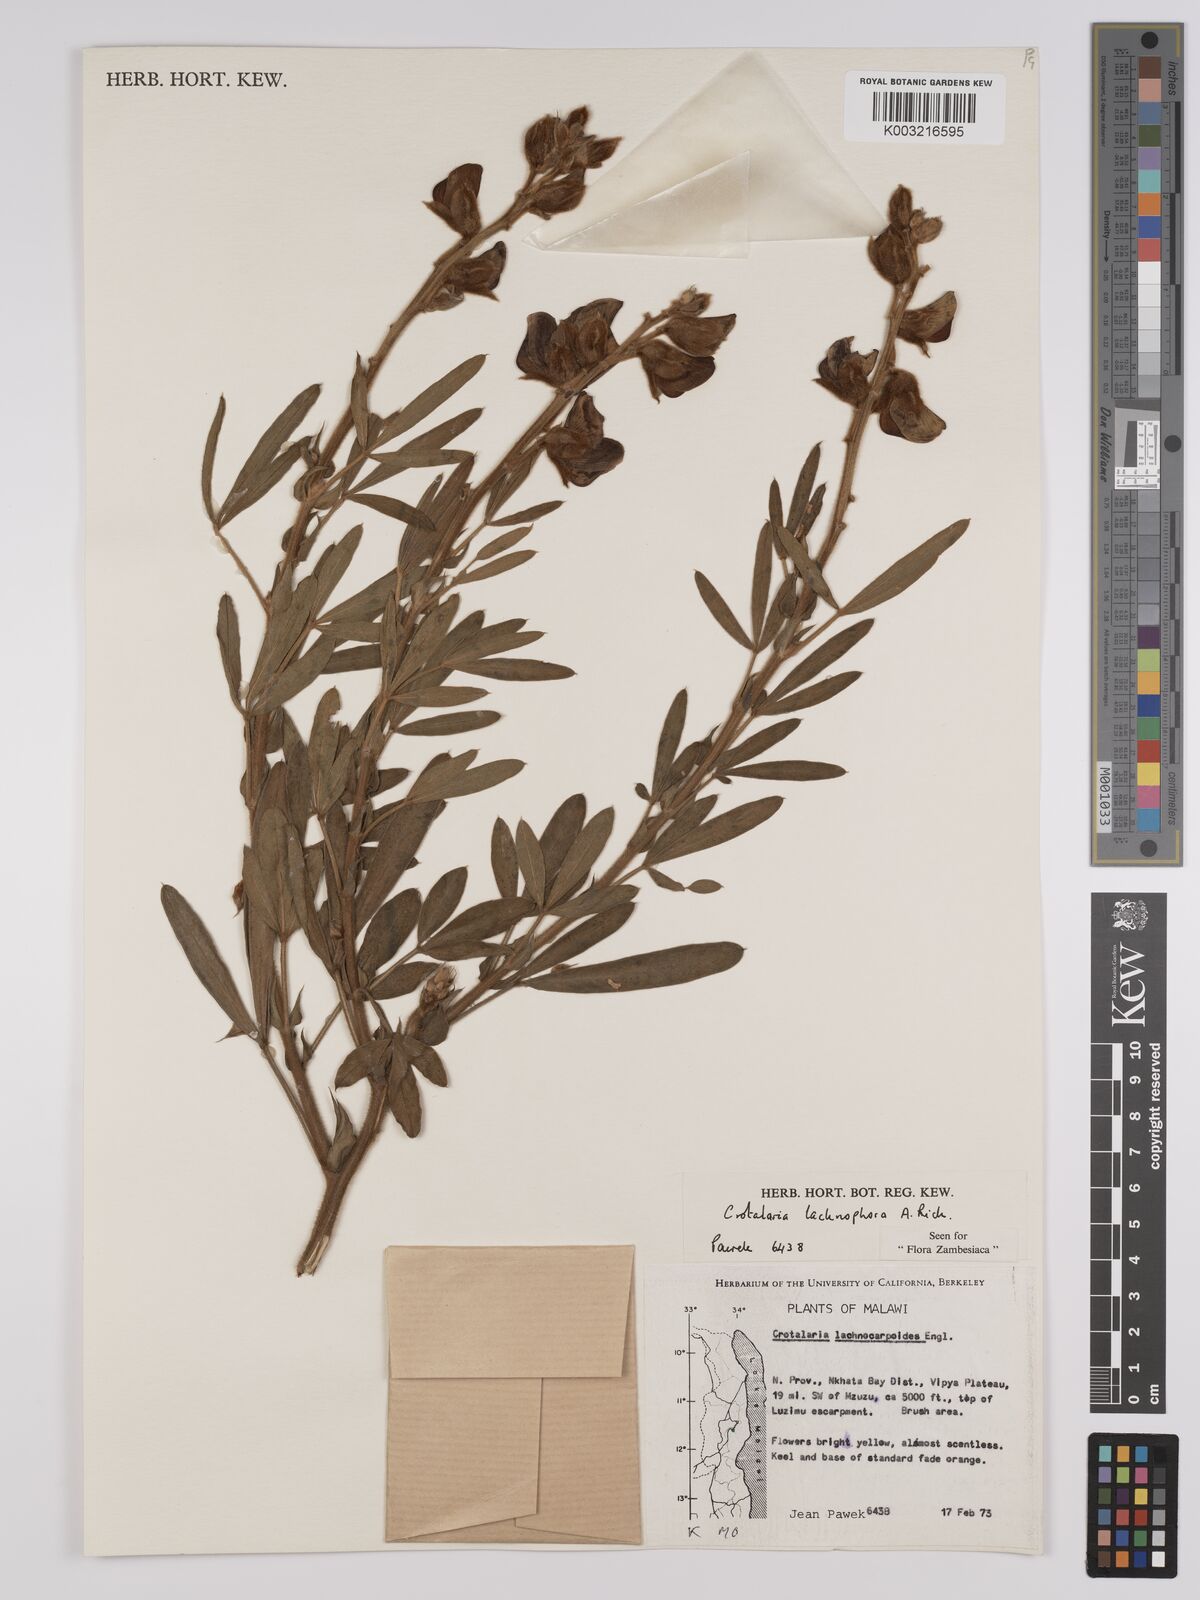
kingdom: Plantae
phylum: Tracheophyta
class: Magnoliopsida
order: Fabales
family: Fabaceae
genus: Crotalaria
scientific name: Crotalaria lachnophora
